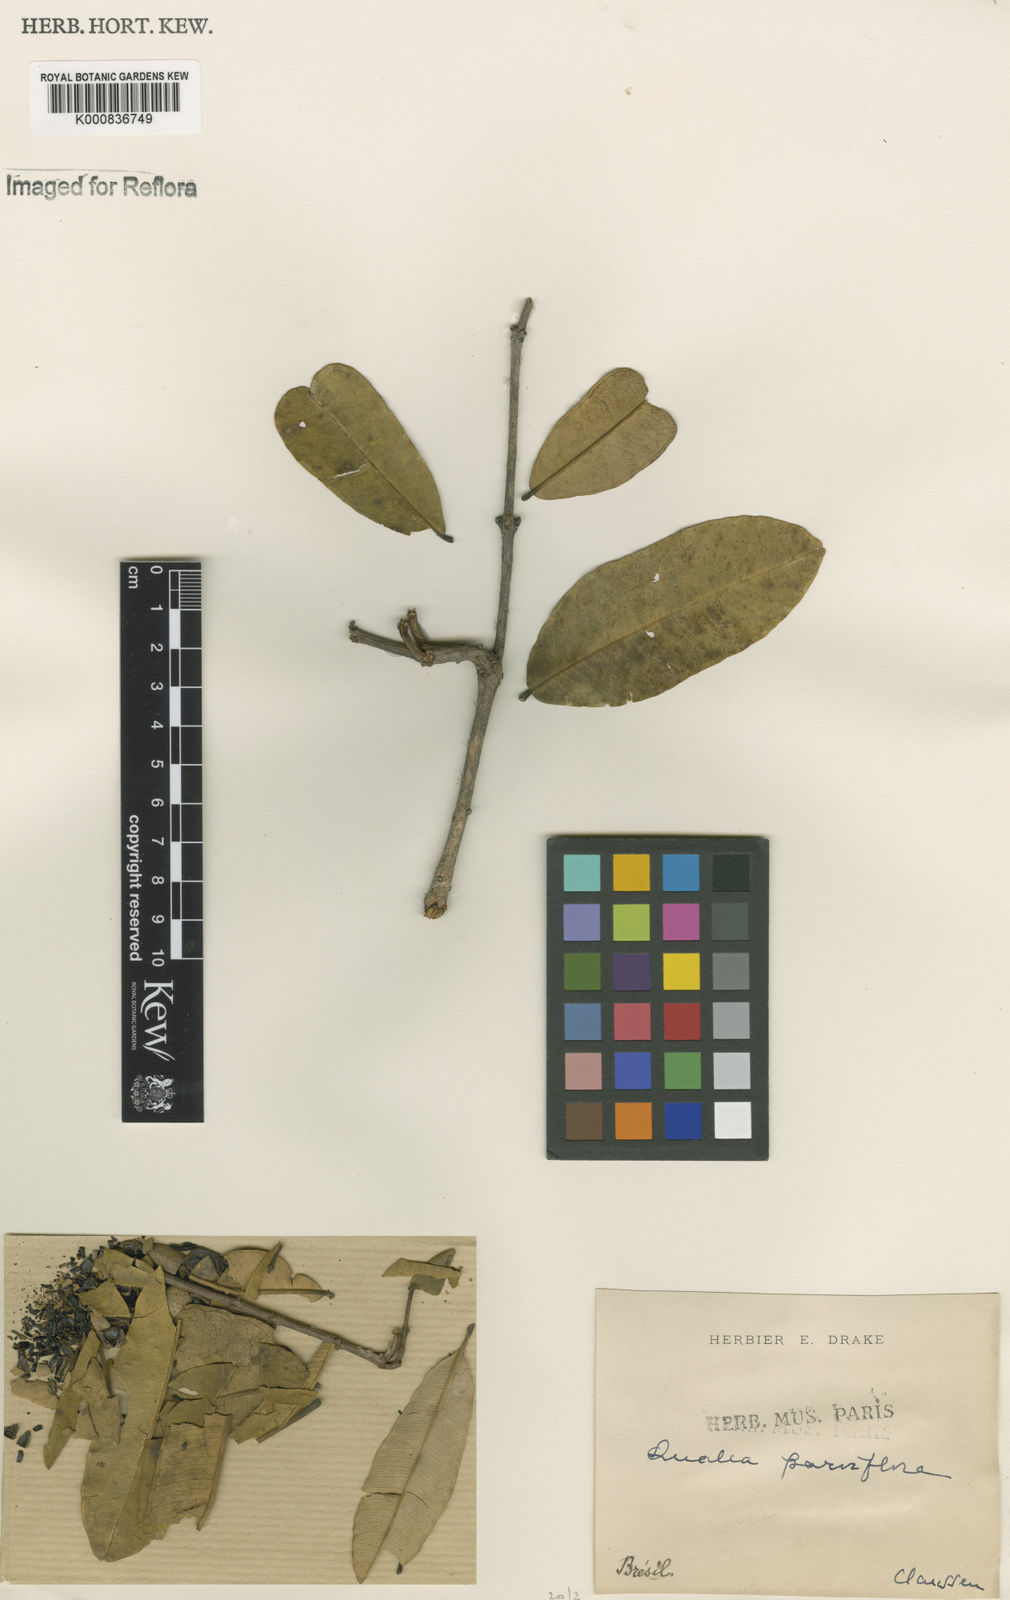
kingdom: Plantae
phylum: Tracheophyta
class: Magnoliopsida
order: Myrtales
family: Vochysiaceae
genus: Qualea
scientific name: Qualea parviflora
